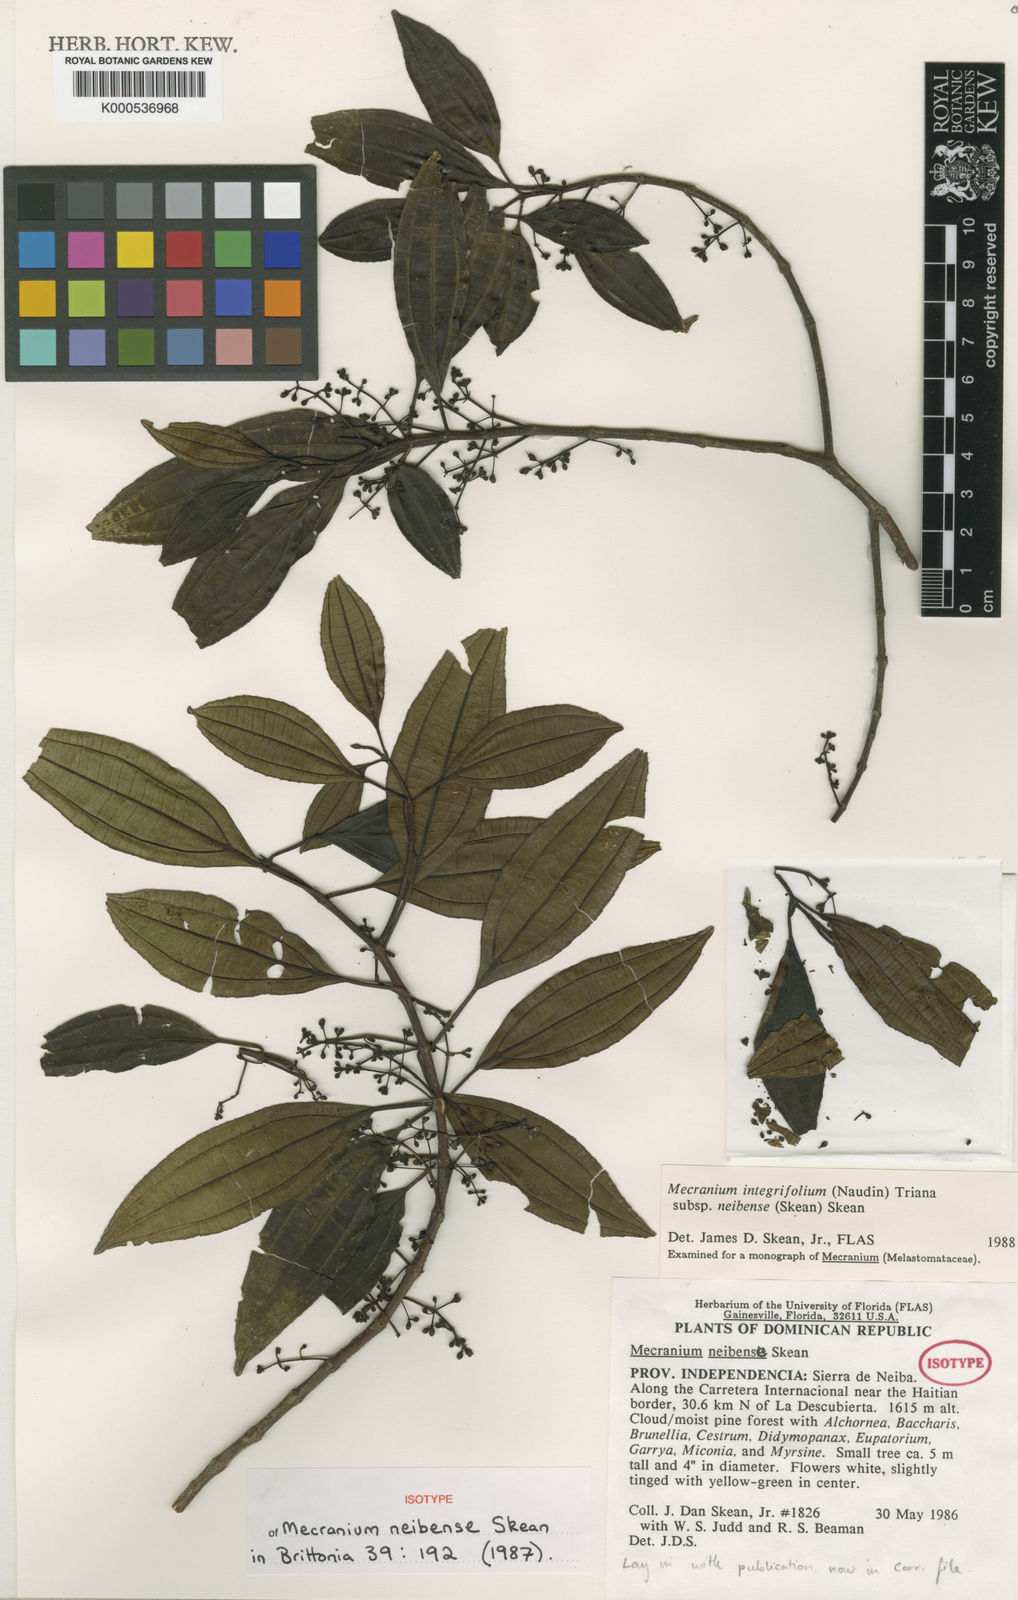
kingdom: Plantae
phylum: Tracheophyta
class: Magnoliopsida
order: Myrtales
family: Melastomataceae
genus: Miconia
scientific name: Miconia antillana
